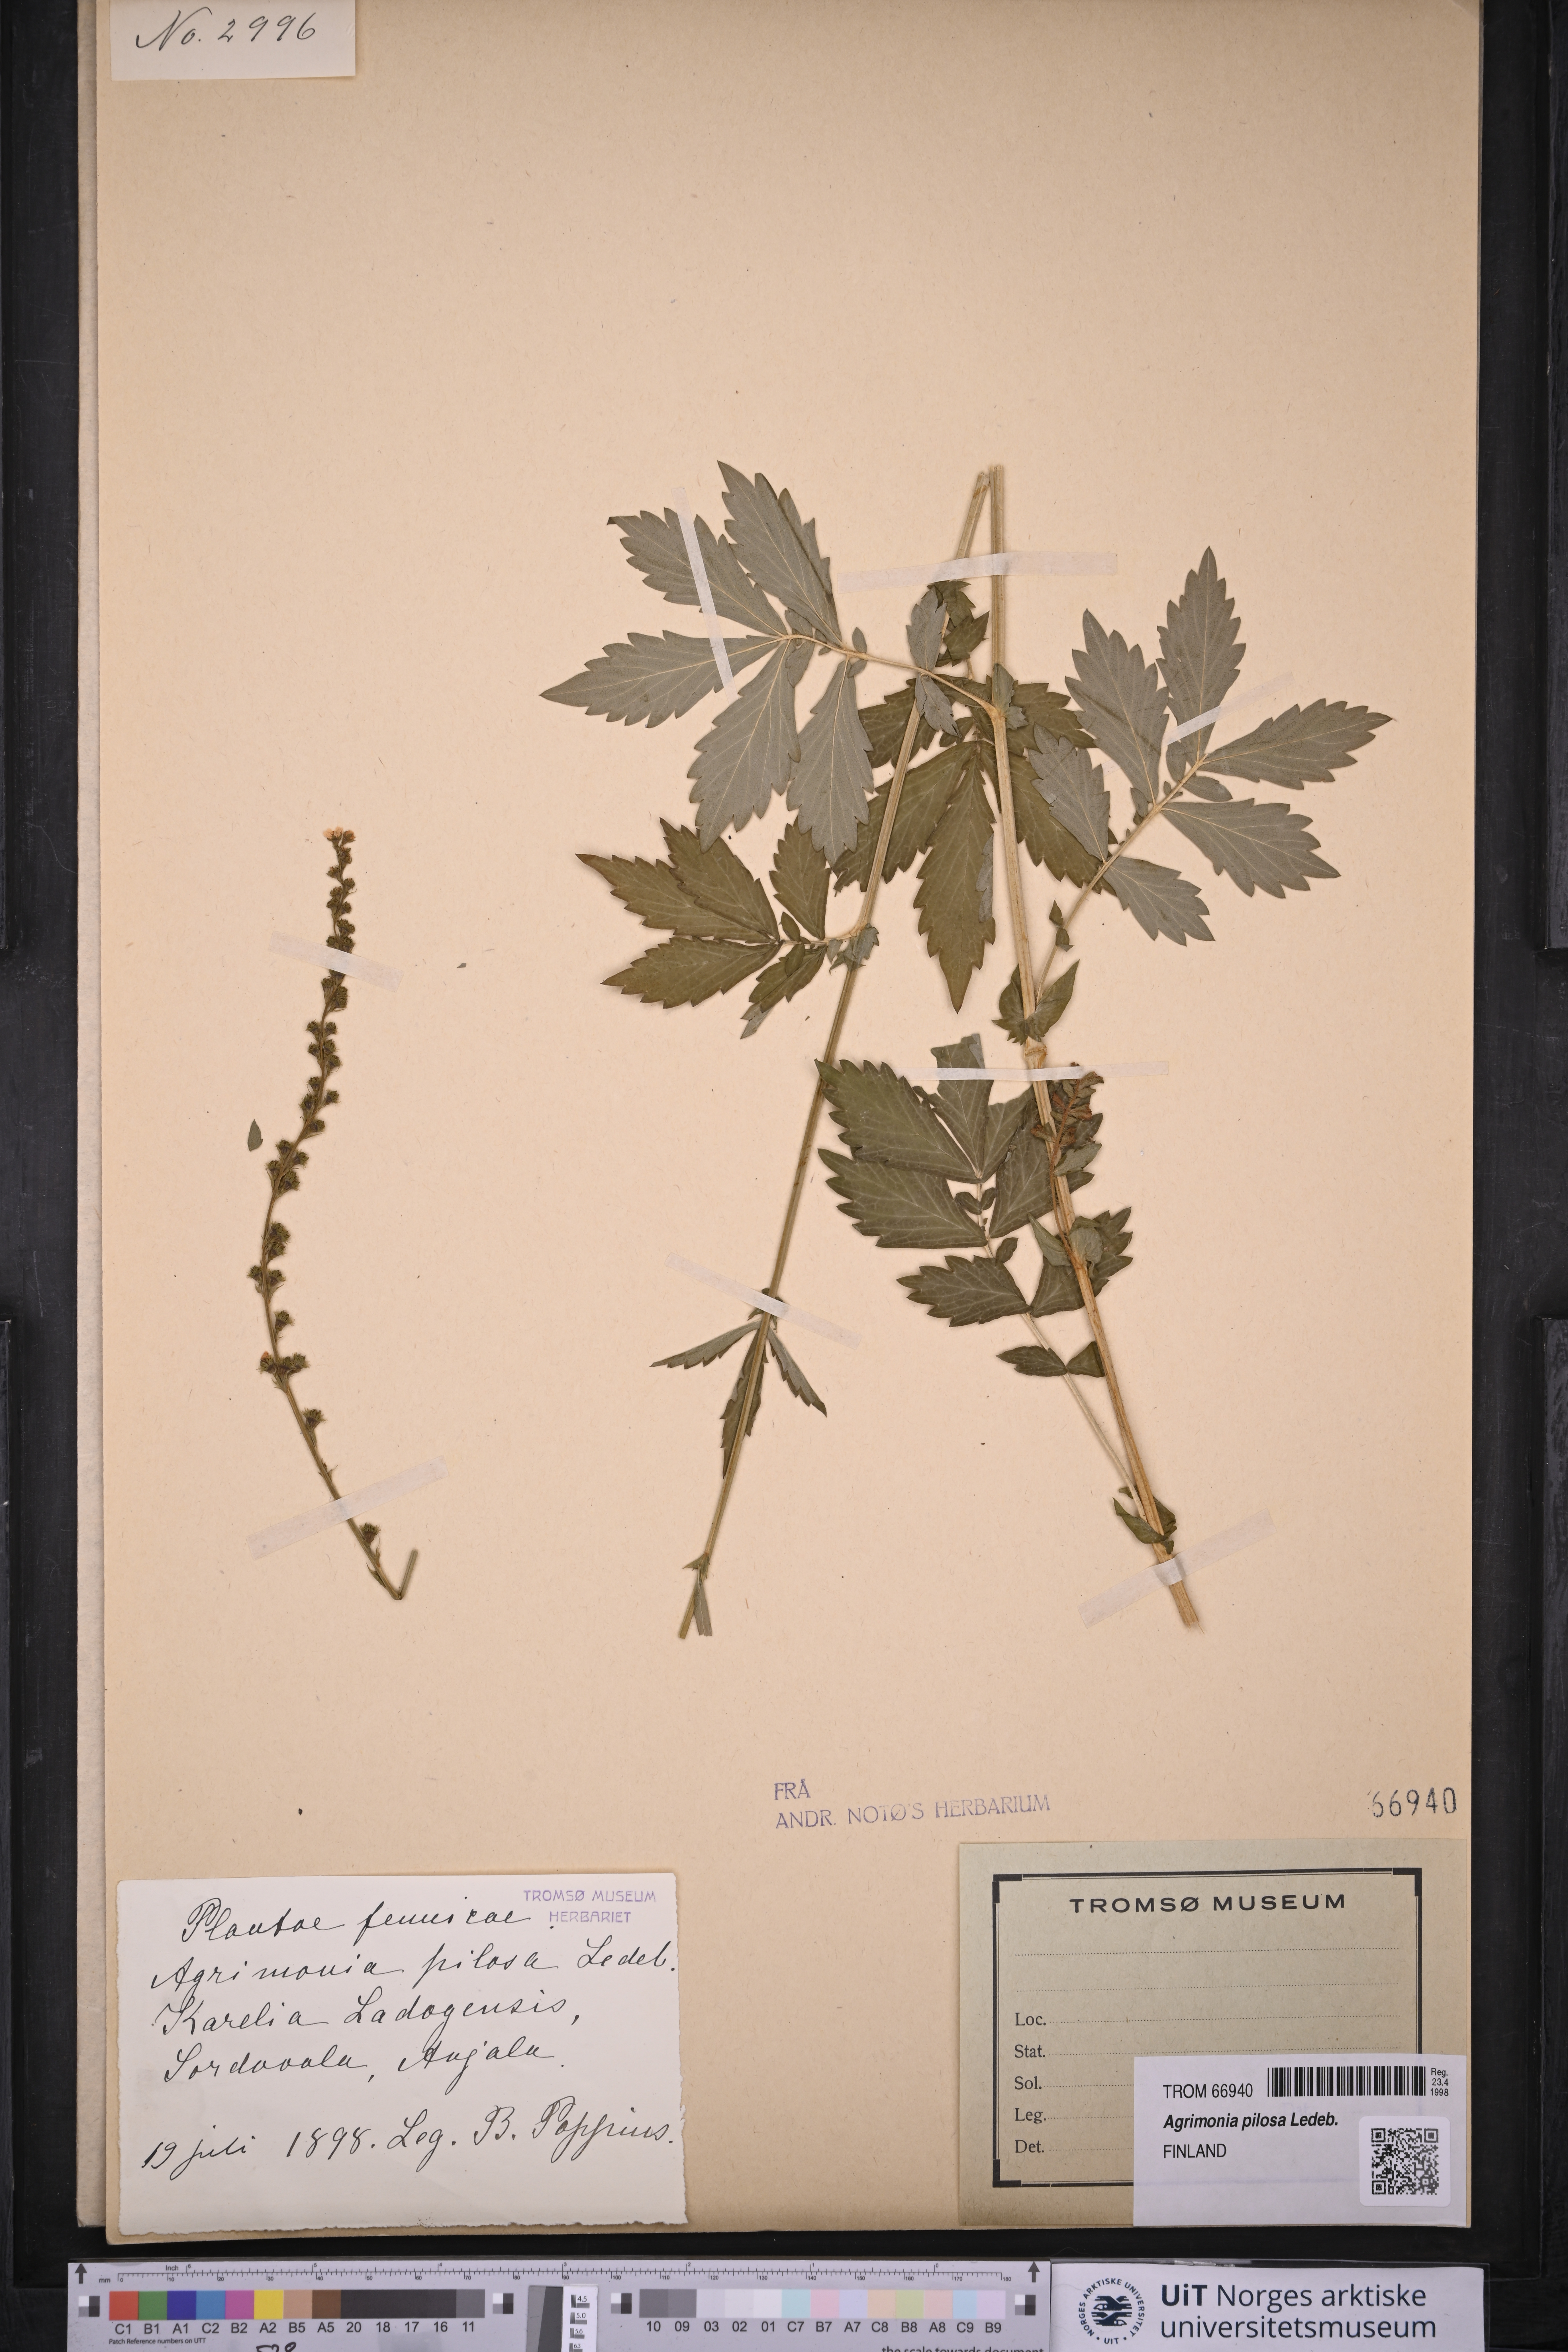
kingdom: Plantae
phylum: Tracheophyta
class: Magnoliopsida
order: Rosales
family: Rosaceae
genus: Agrimonia
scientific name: Agrimonia pilosa
